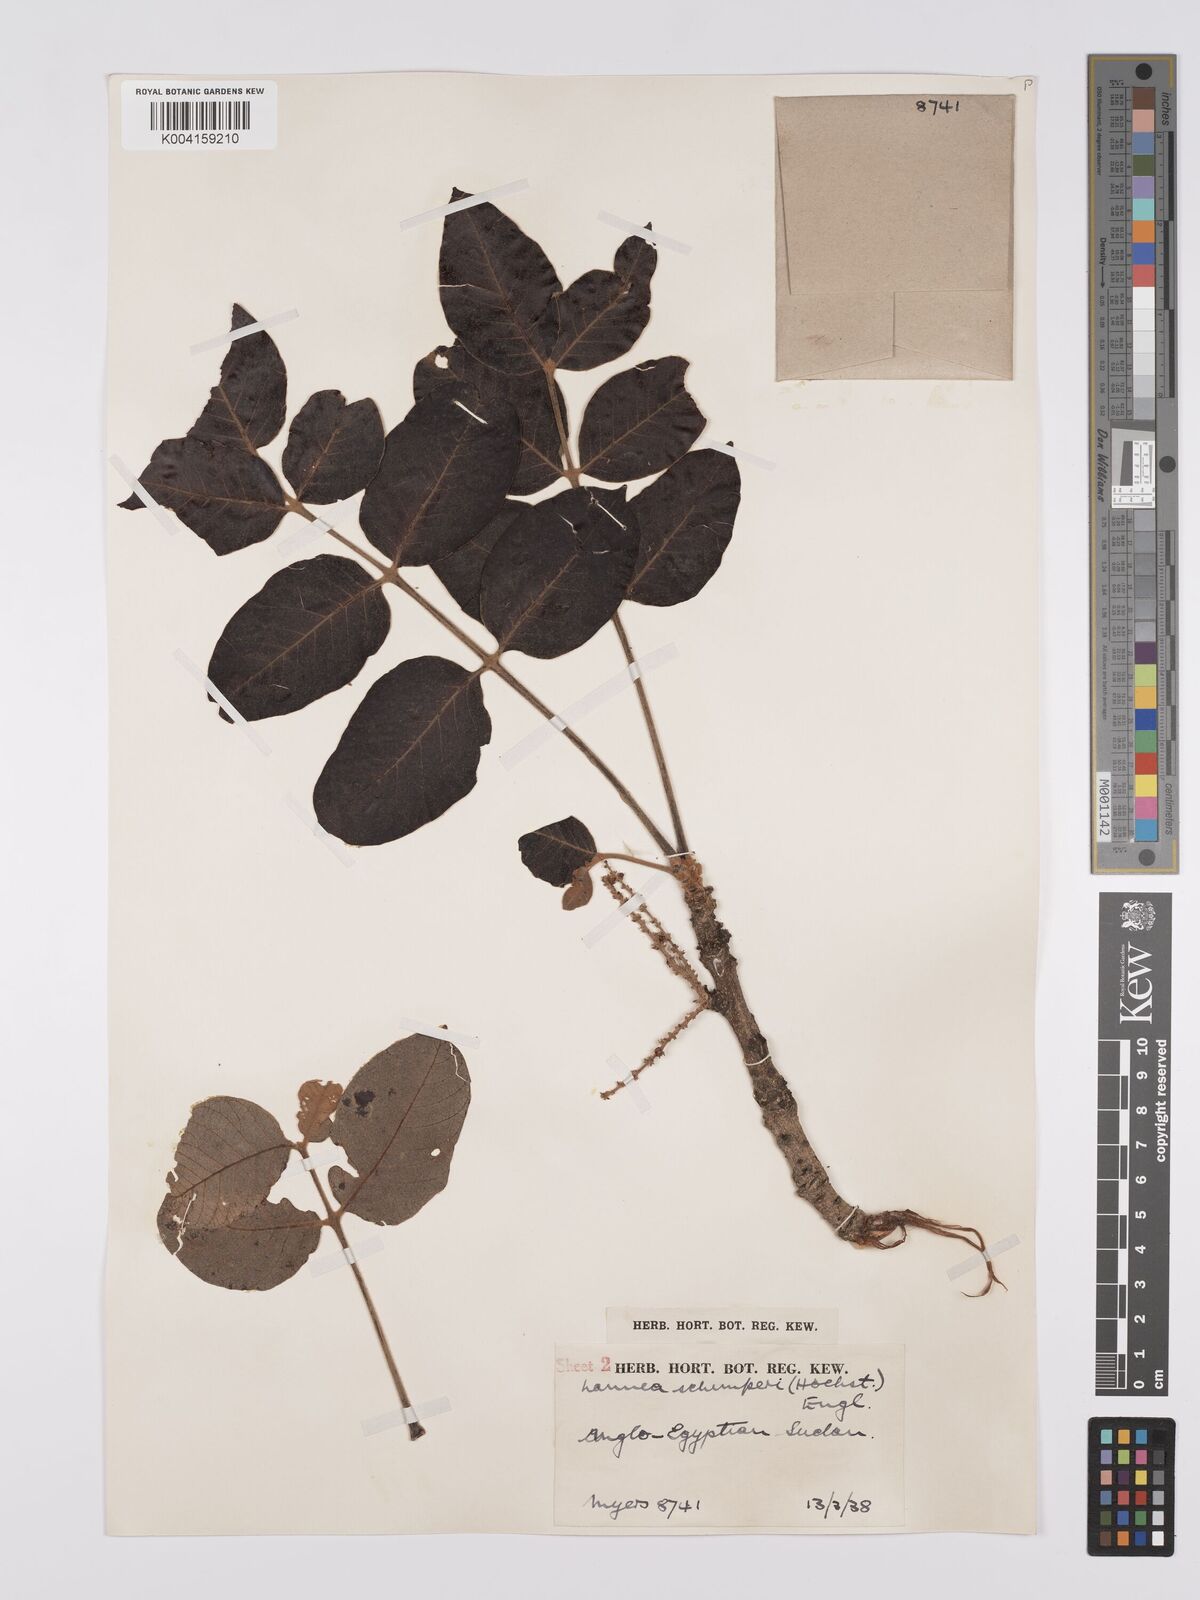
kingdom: Plantae
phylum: Tracheophyta
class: Magnoliopsida
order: Sapindales
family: Anacardiaceae
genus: Lannea
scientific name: Lannea schimperi
